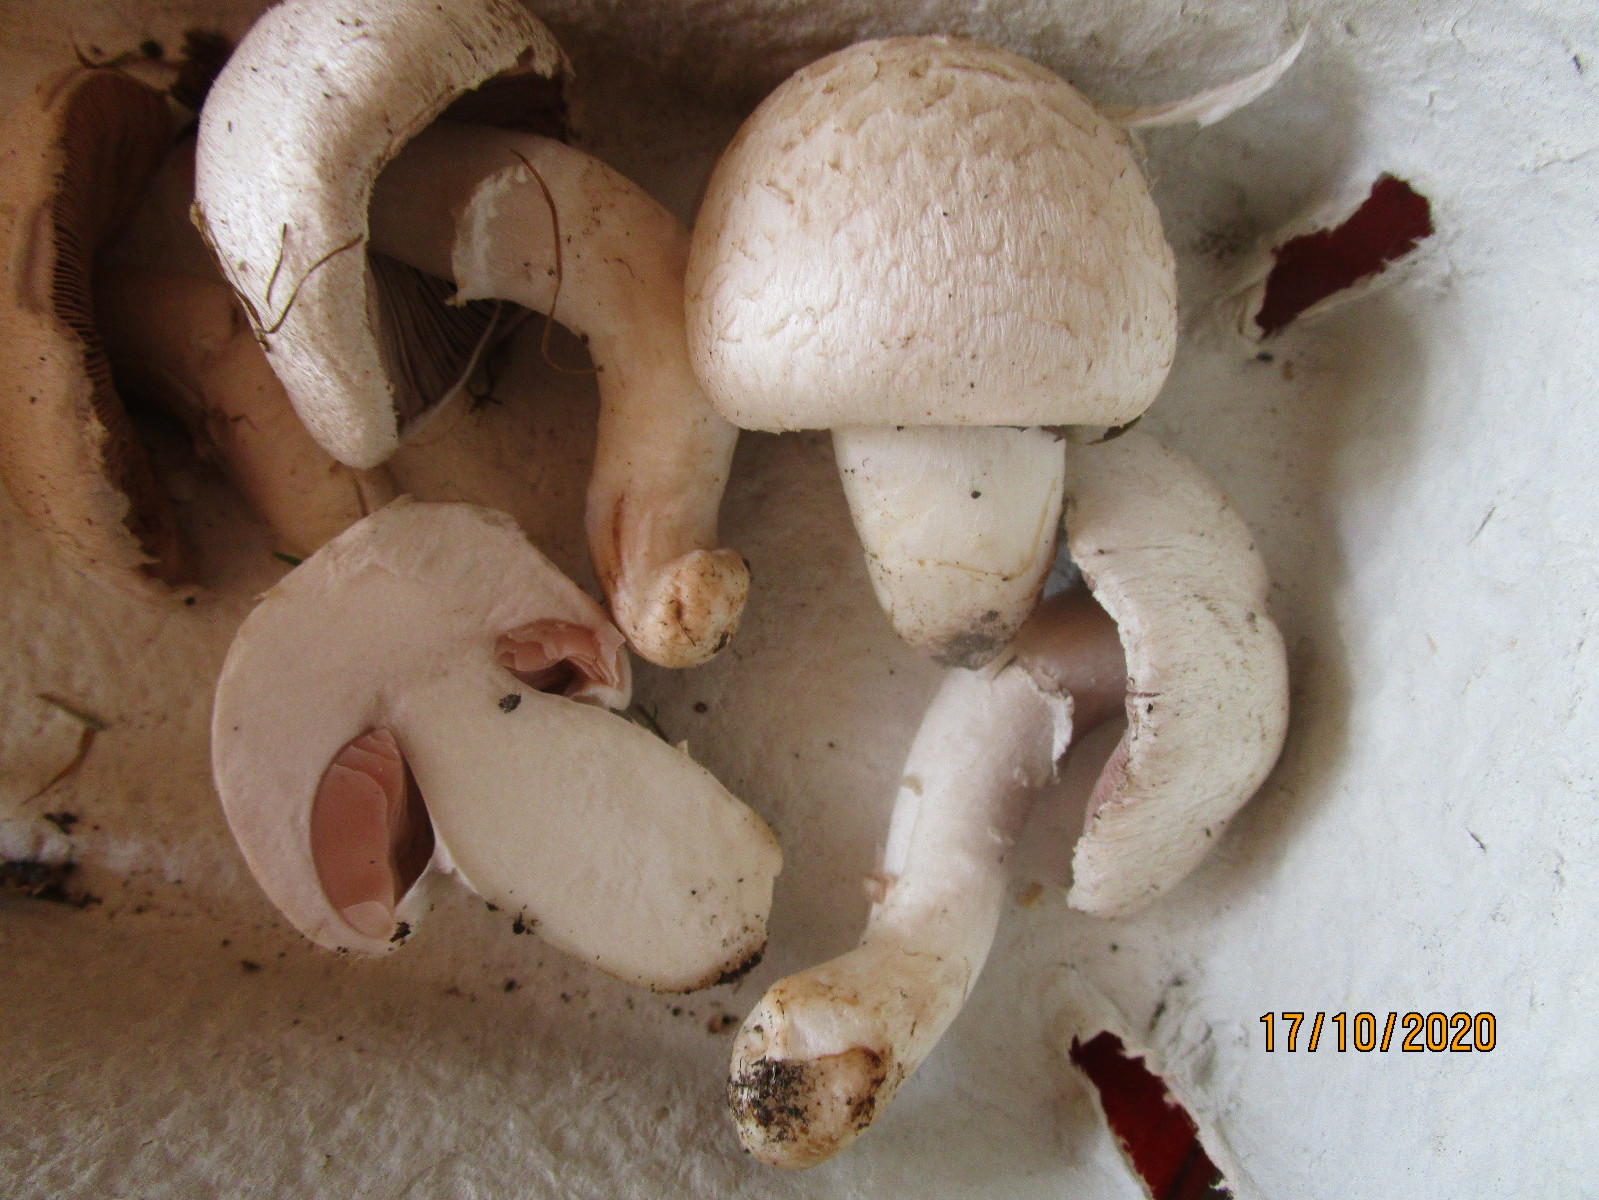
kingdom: Fungi
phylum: Basidiomycota
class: Agaricomycetes
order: Agaricales
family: Agaricaceae
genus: Agaricus
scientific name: Agaricus campestris
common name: mark-champignon
